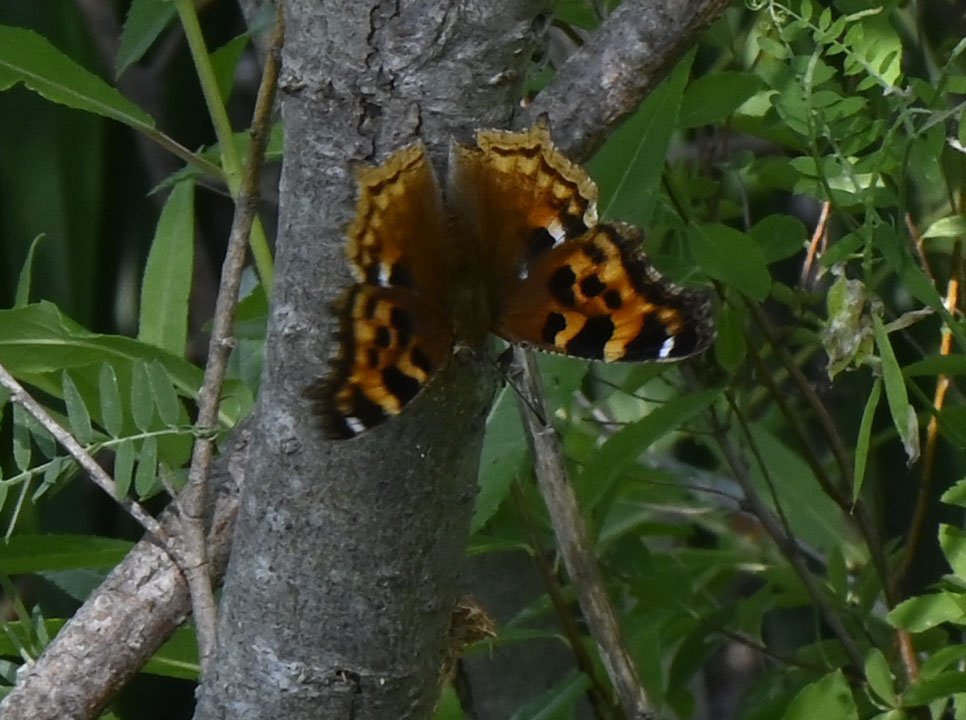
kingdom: Animalia
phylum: Arthropoda
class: Insecta
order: Lepidoptera
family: Nymphalidae
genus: Polygonia
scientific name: Polygonia vaualbum
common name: Compton Tortoiseshell
